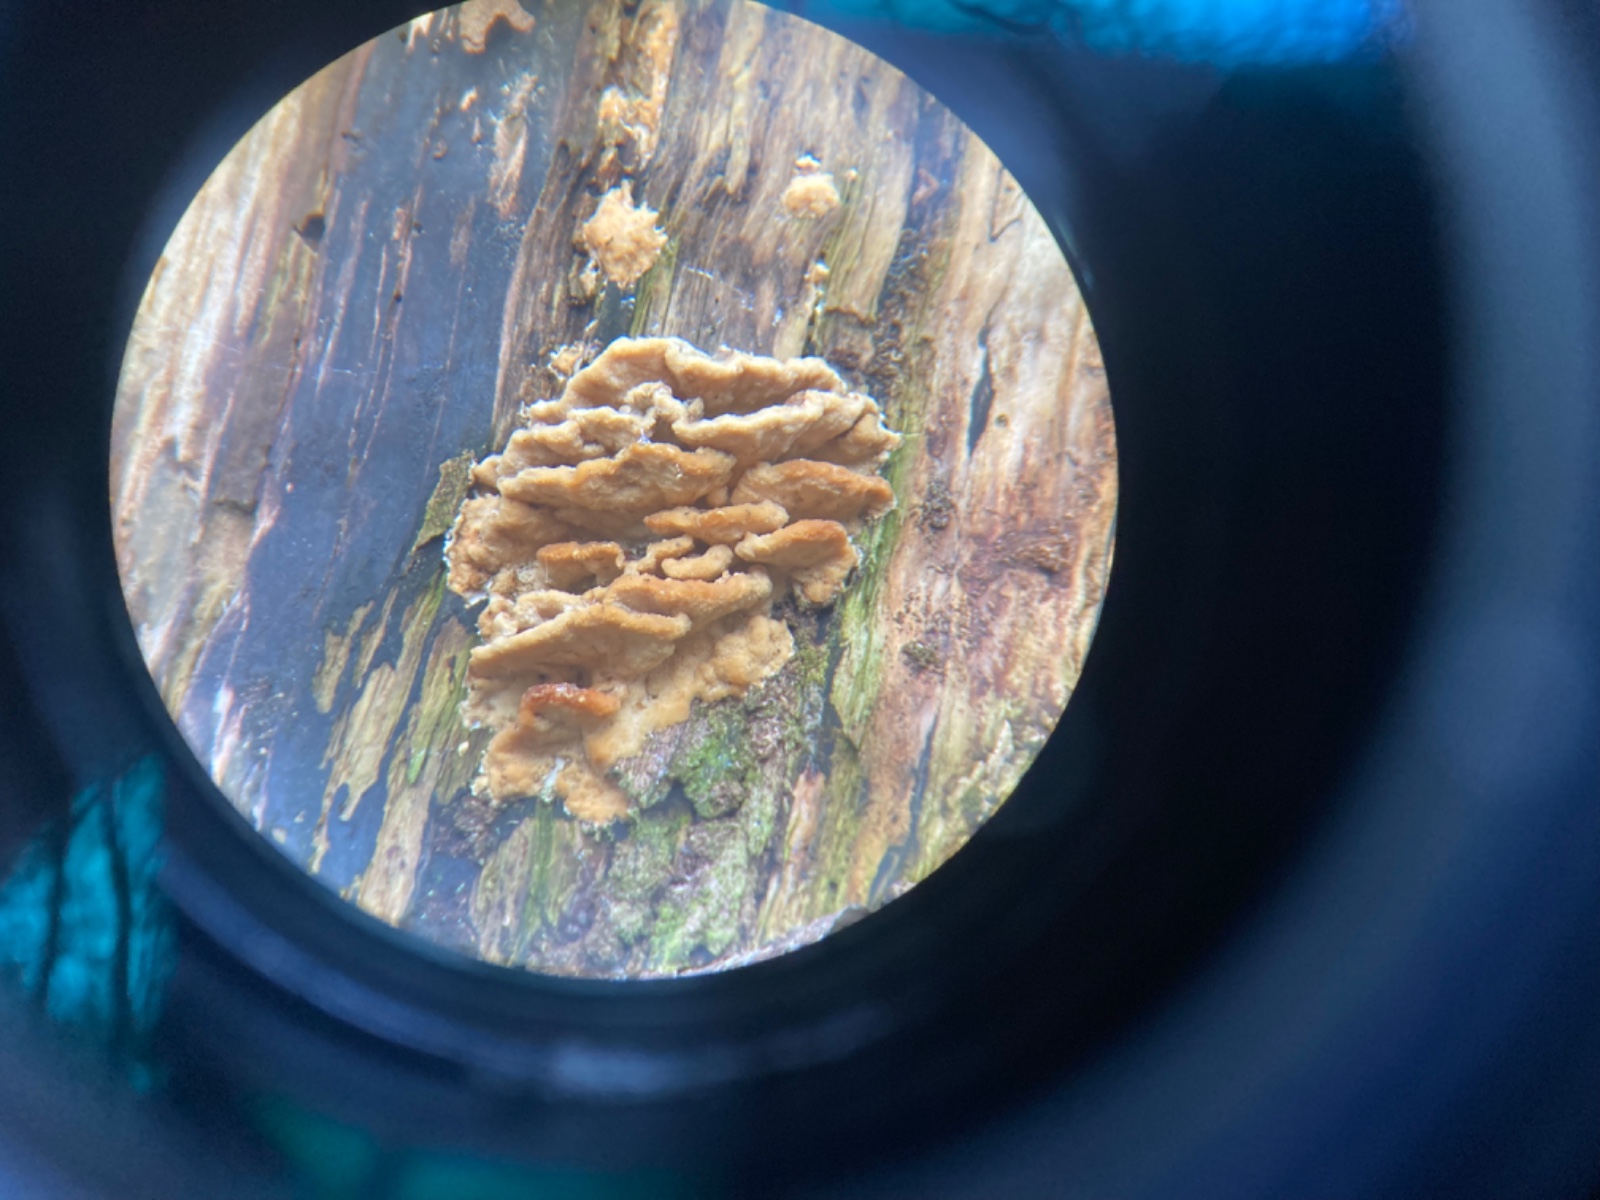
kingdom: Fungi
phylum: Basidiomycota
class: Agaricomycetes
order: Polyporales
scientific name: Polyporales
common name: poresvampordenen
